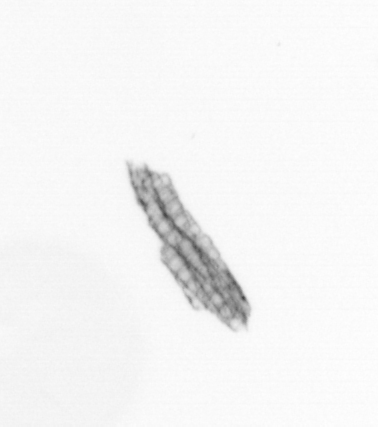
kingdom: Chromista
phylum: Ochrophyta
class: Bacillariophyceae
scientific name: Bacillariophyceae
